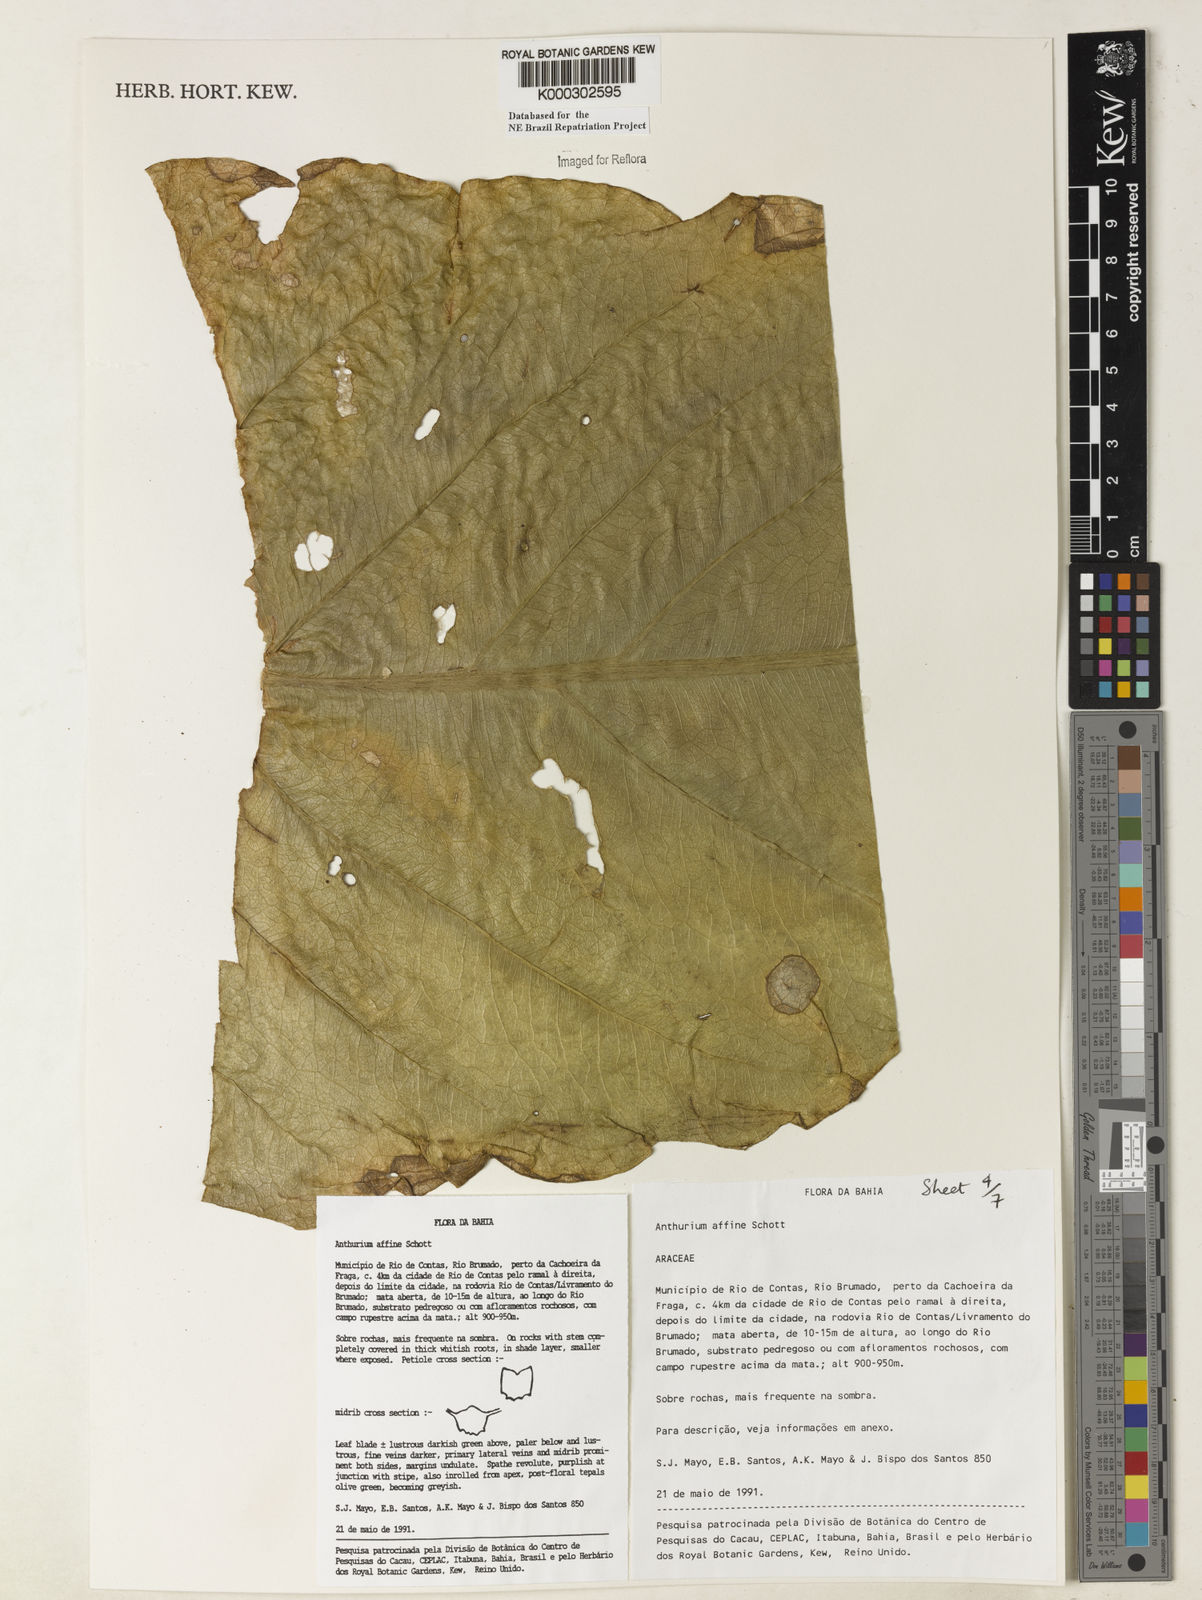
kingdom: Plantae
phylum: Tracheophyta
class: Liliopsida
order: Alismatales
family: Araceae
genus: Anthurium
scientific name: Anthurium affine
